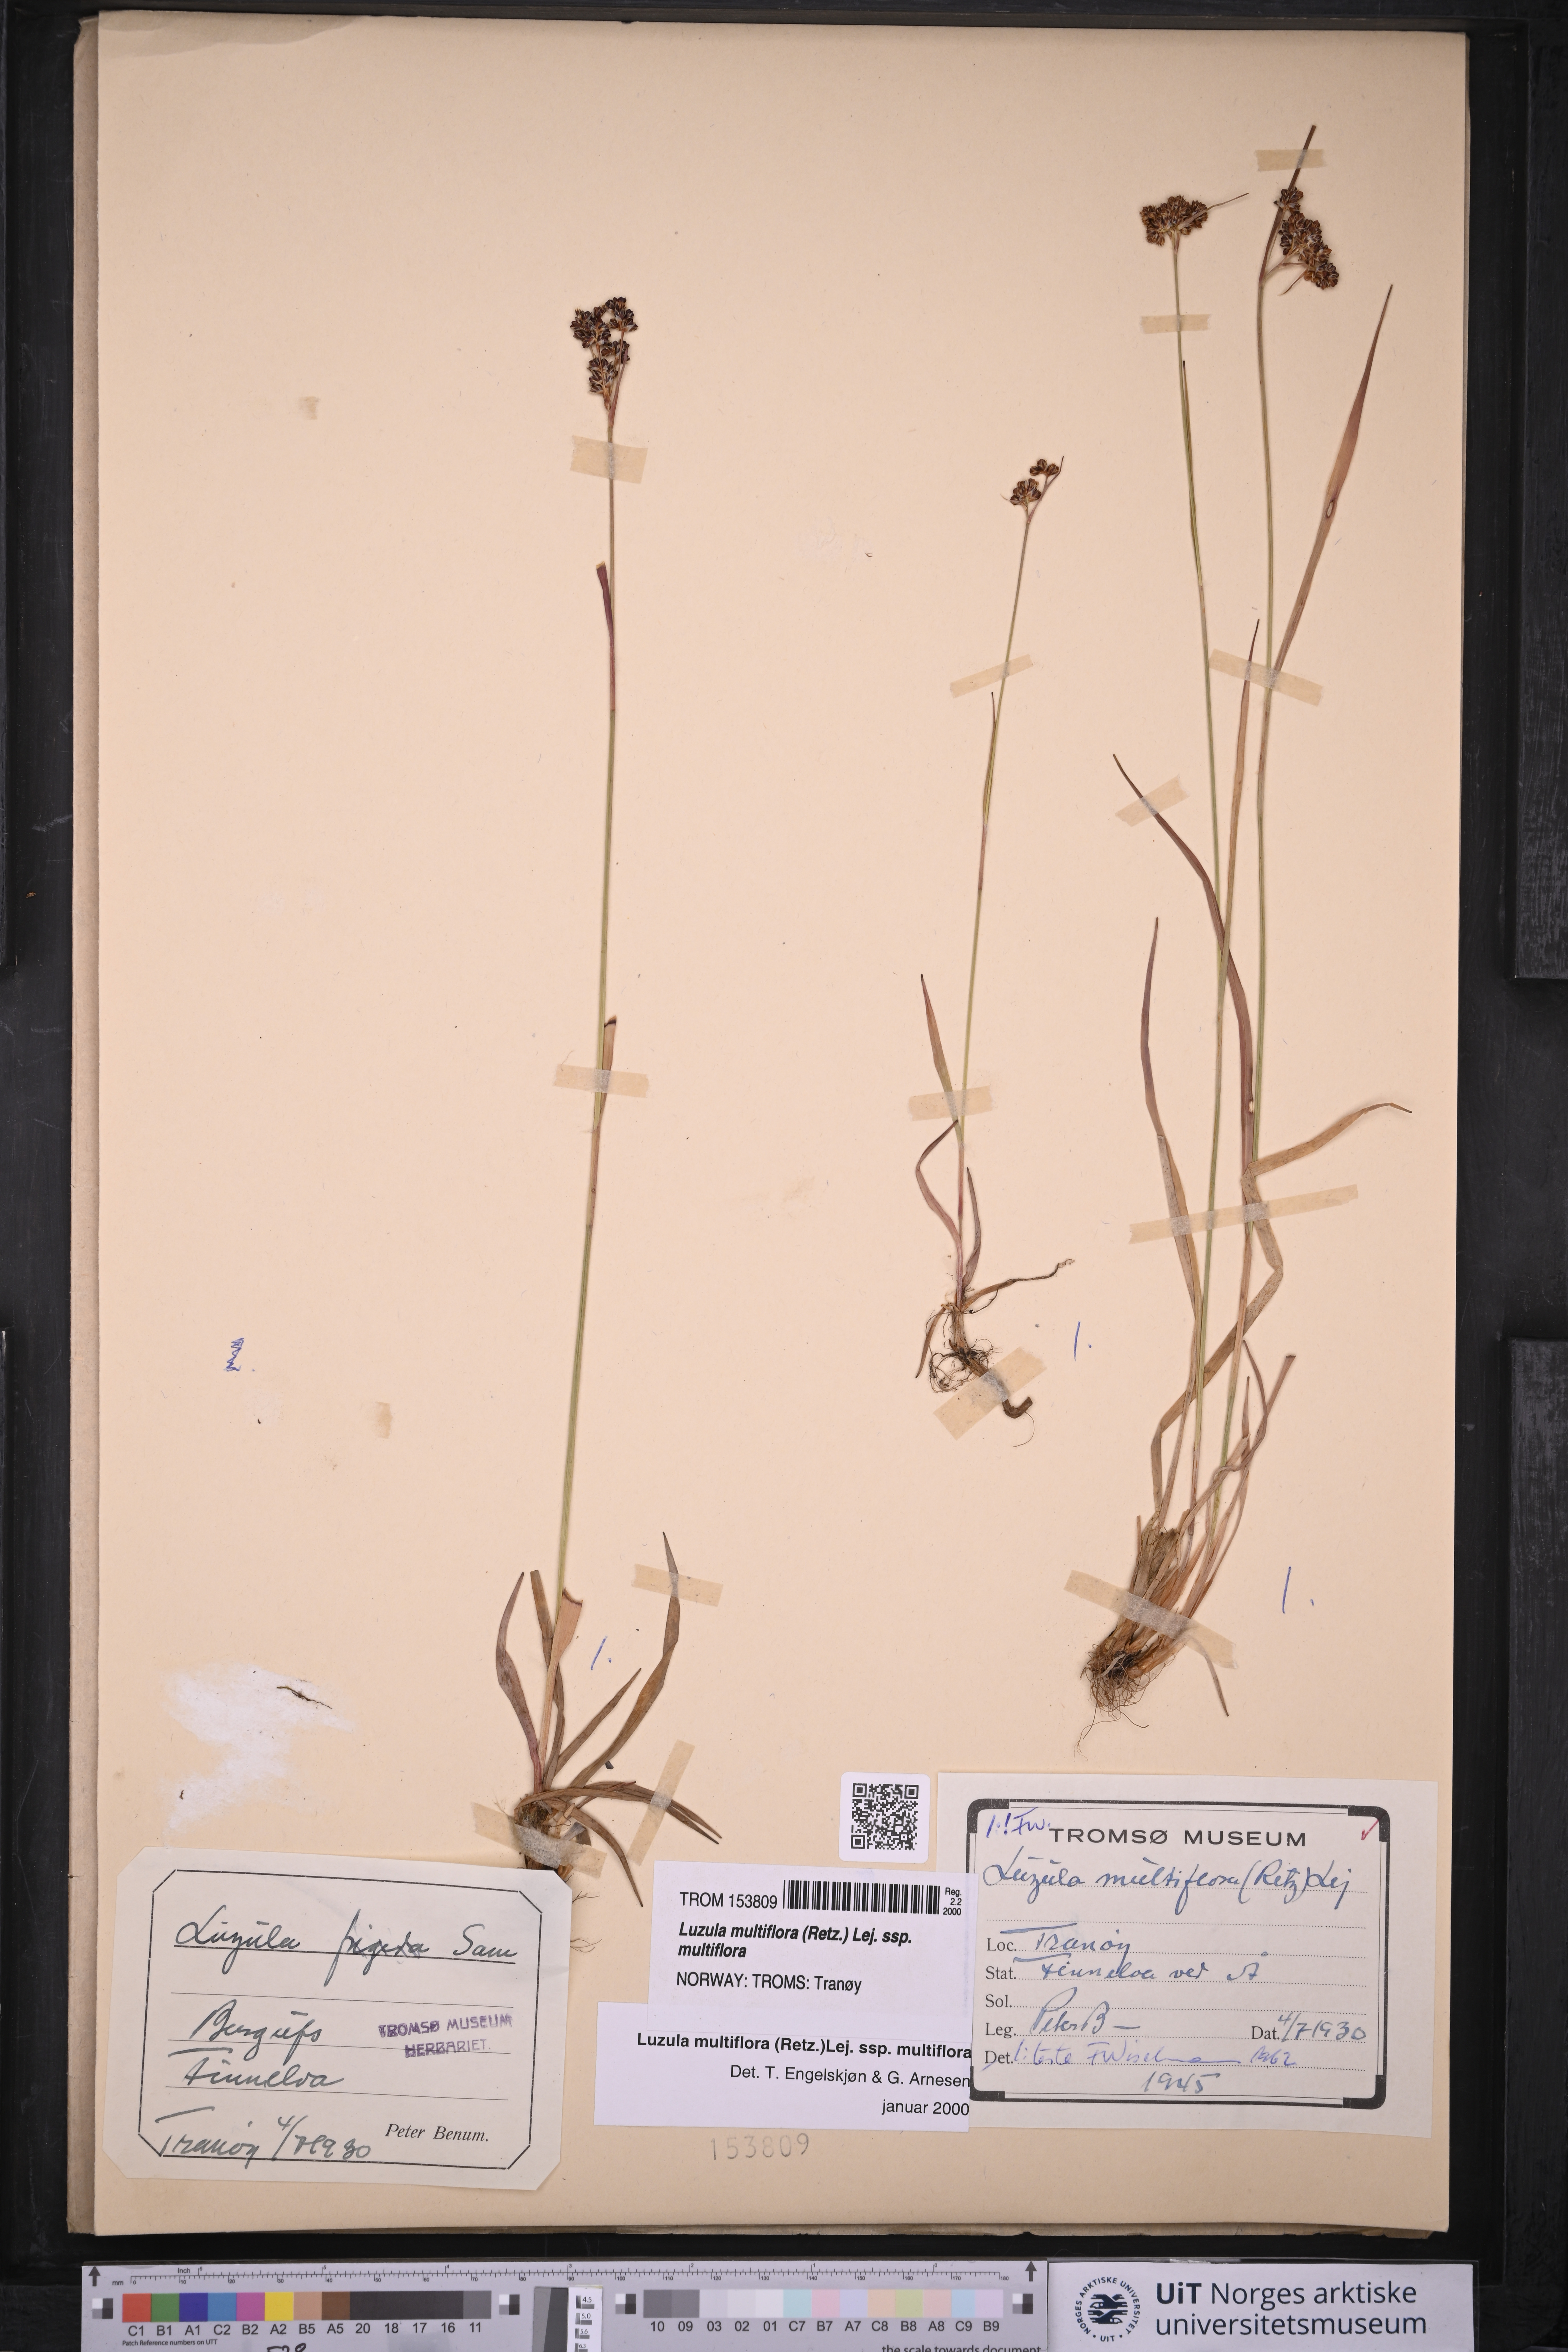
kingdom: Plantae
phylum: Tracheophyta
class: Liliopsida
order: Poales
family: Juncaceae
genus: Luzula
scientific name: Luzula multiflora
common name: Heath wood-rush
